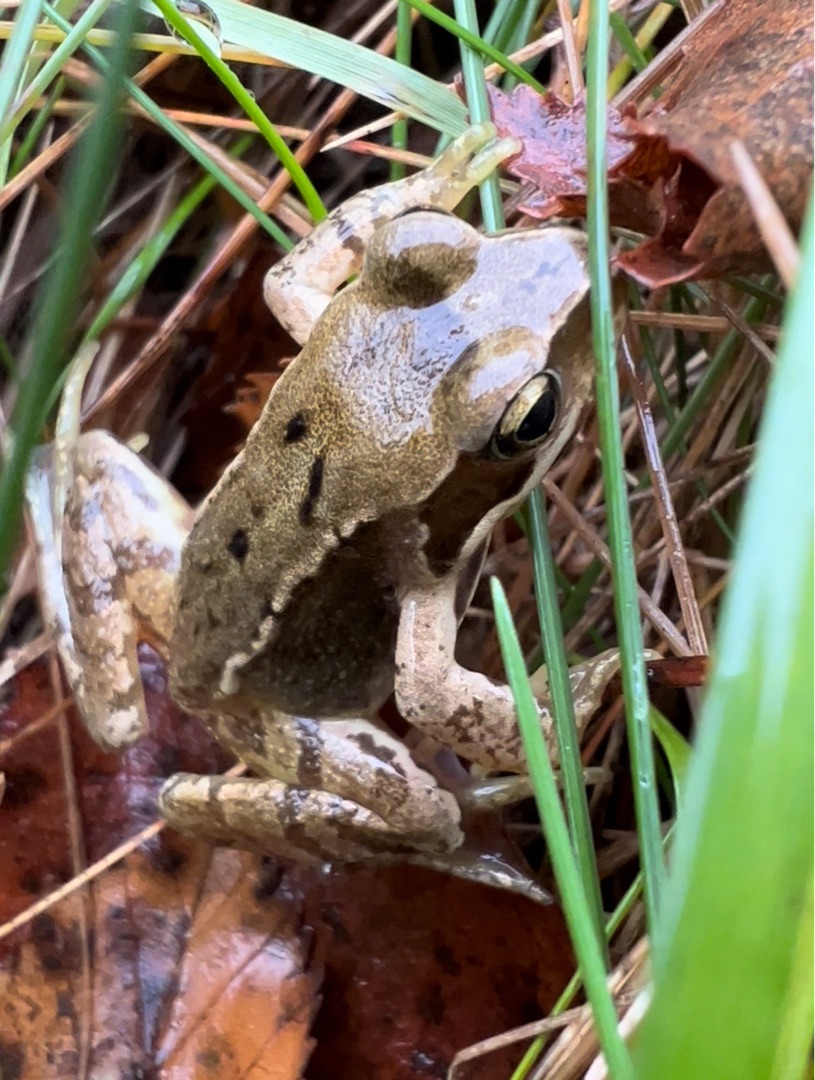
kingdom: Animalia
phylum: Chordata
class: Amphibia
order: Anura
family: Ranidae
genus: Rana
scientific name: Rana temporaria
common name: Butsnudet frø
